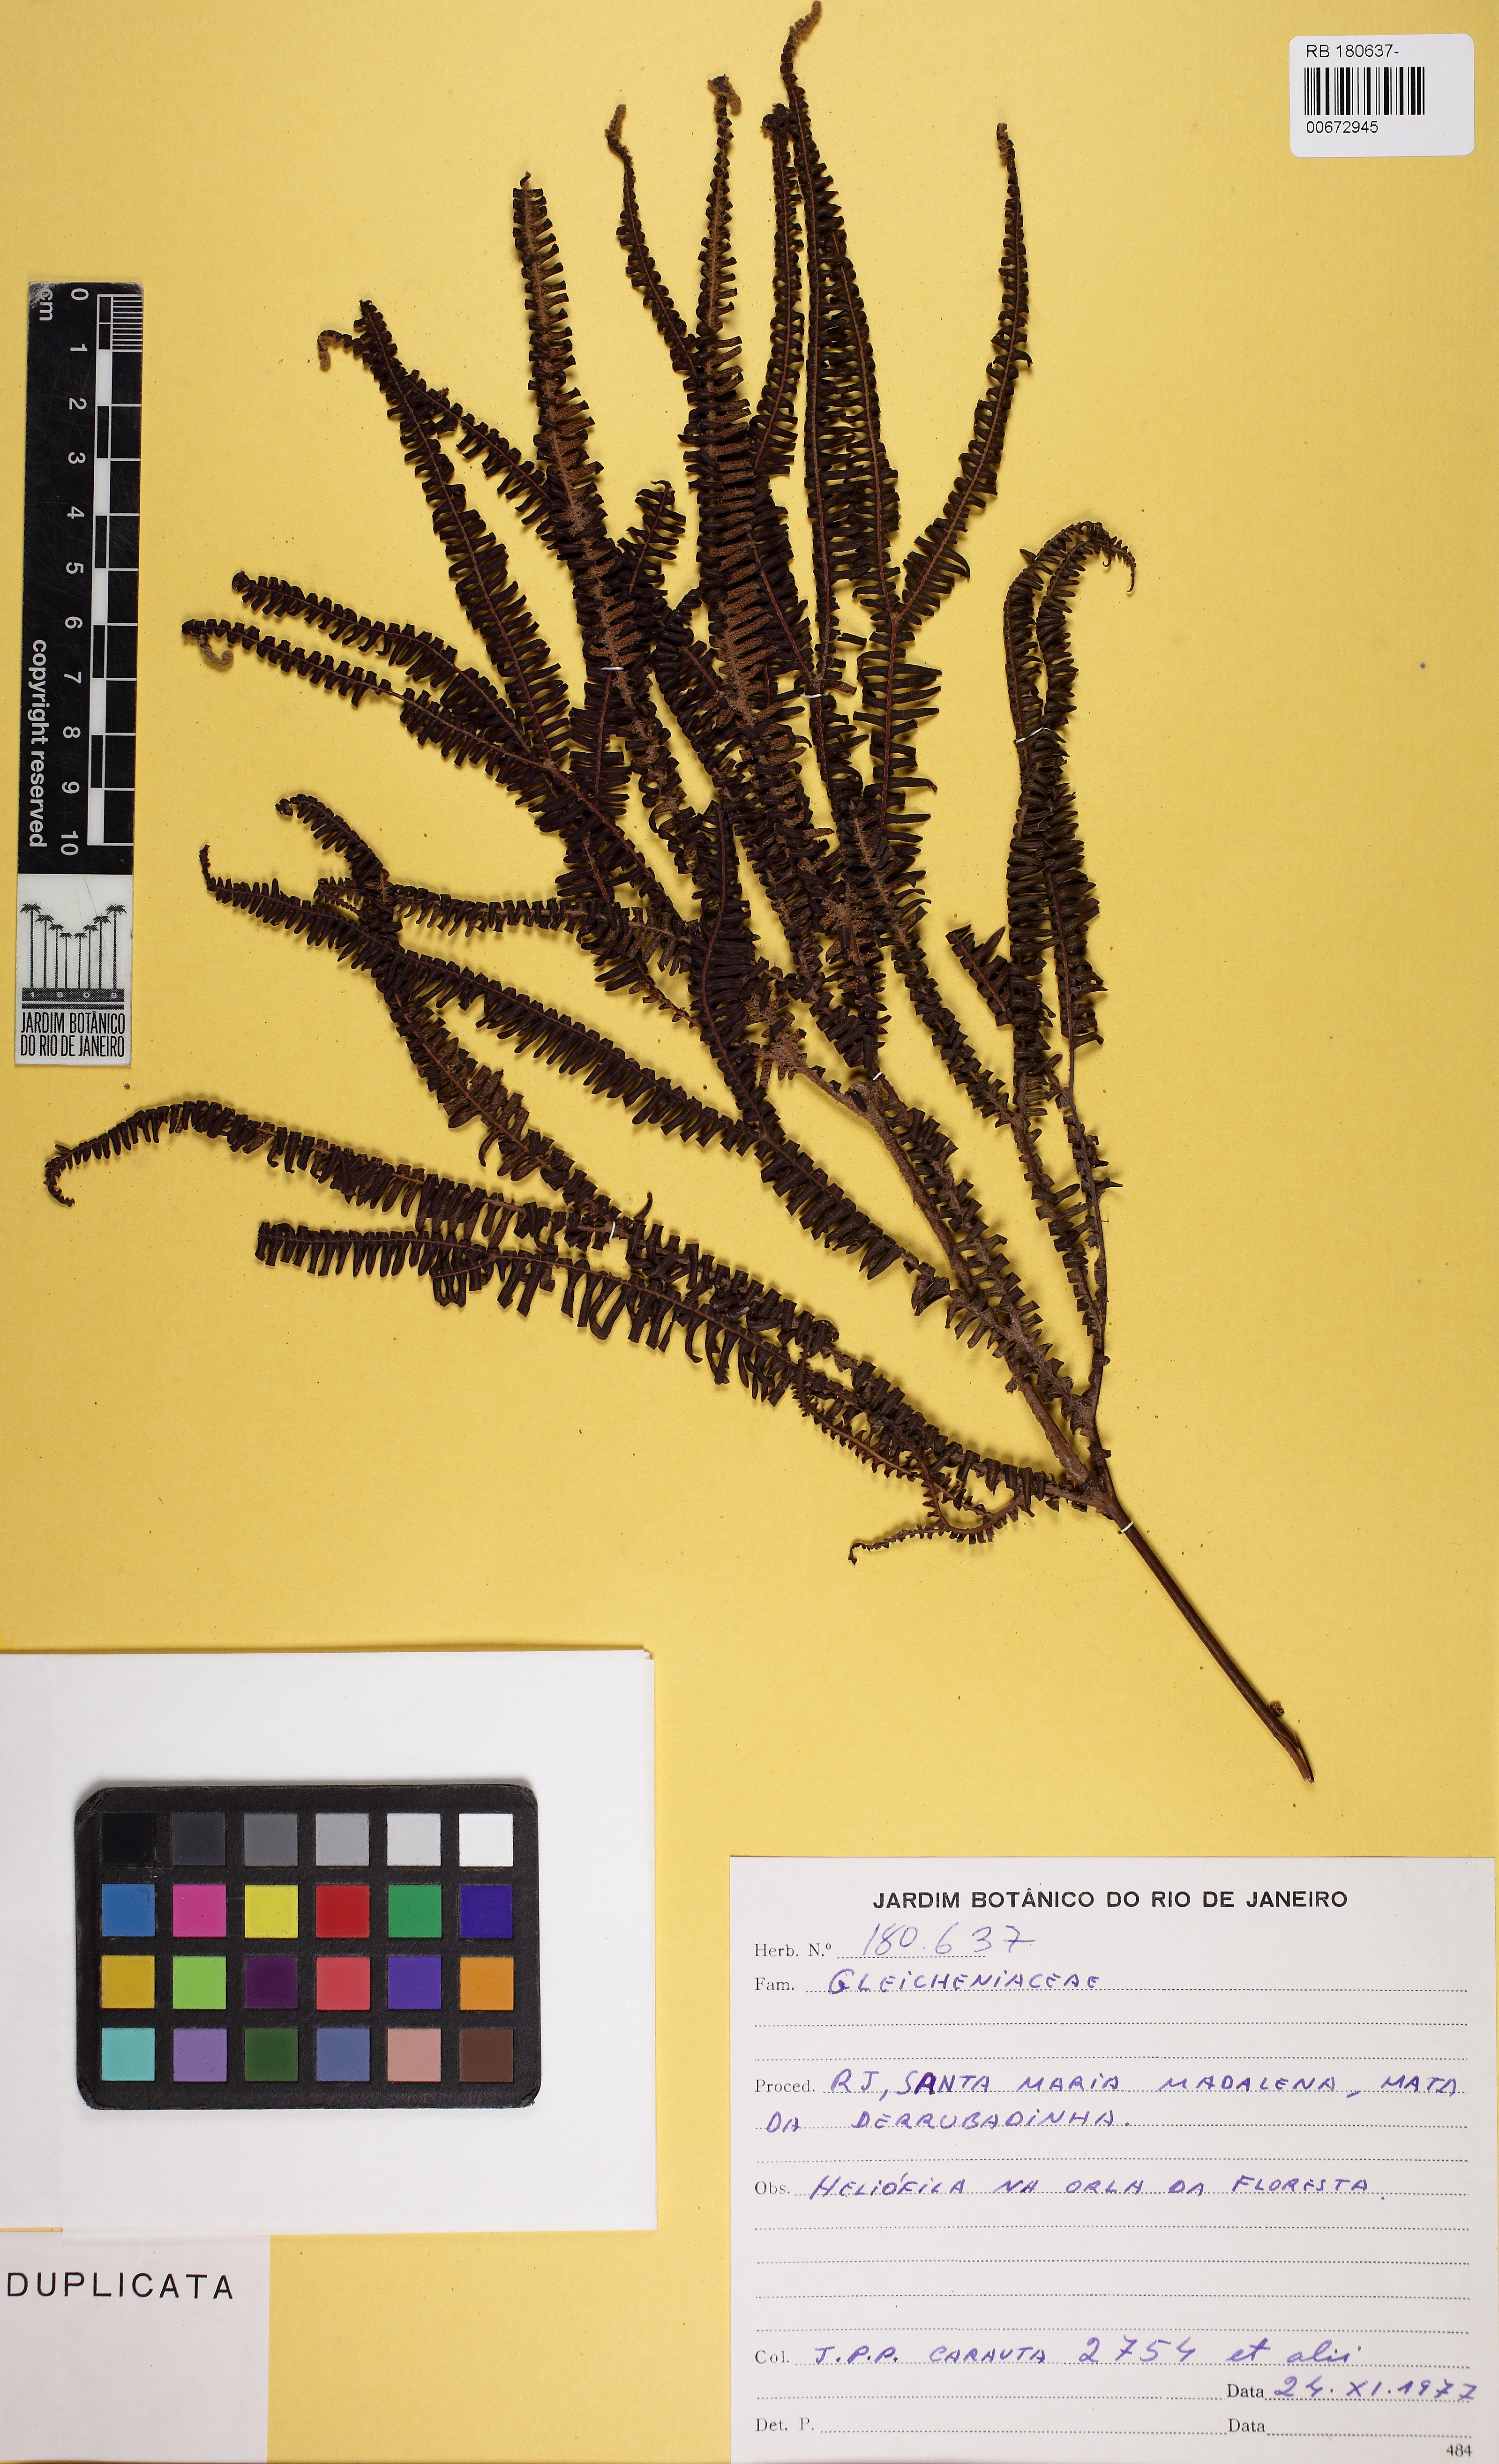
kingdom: Plantae
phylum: Tracheophyta
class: Polypodiopsida
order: Gleicheniales
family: Gleicheniaceae
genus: Sticherus
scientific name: Sticherus lanuginosus
